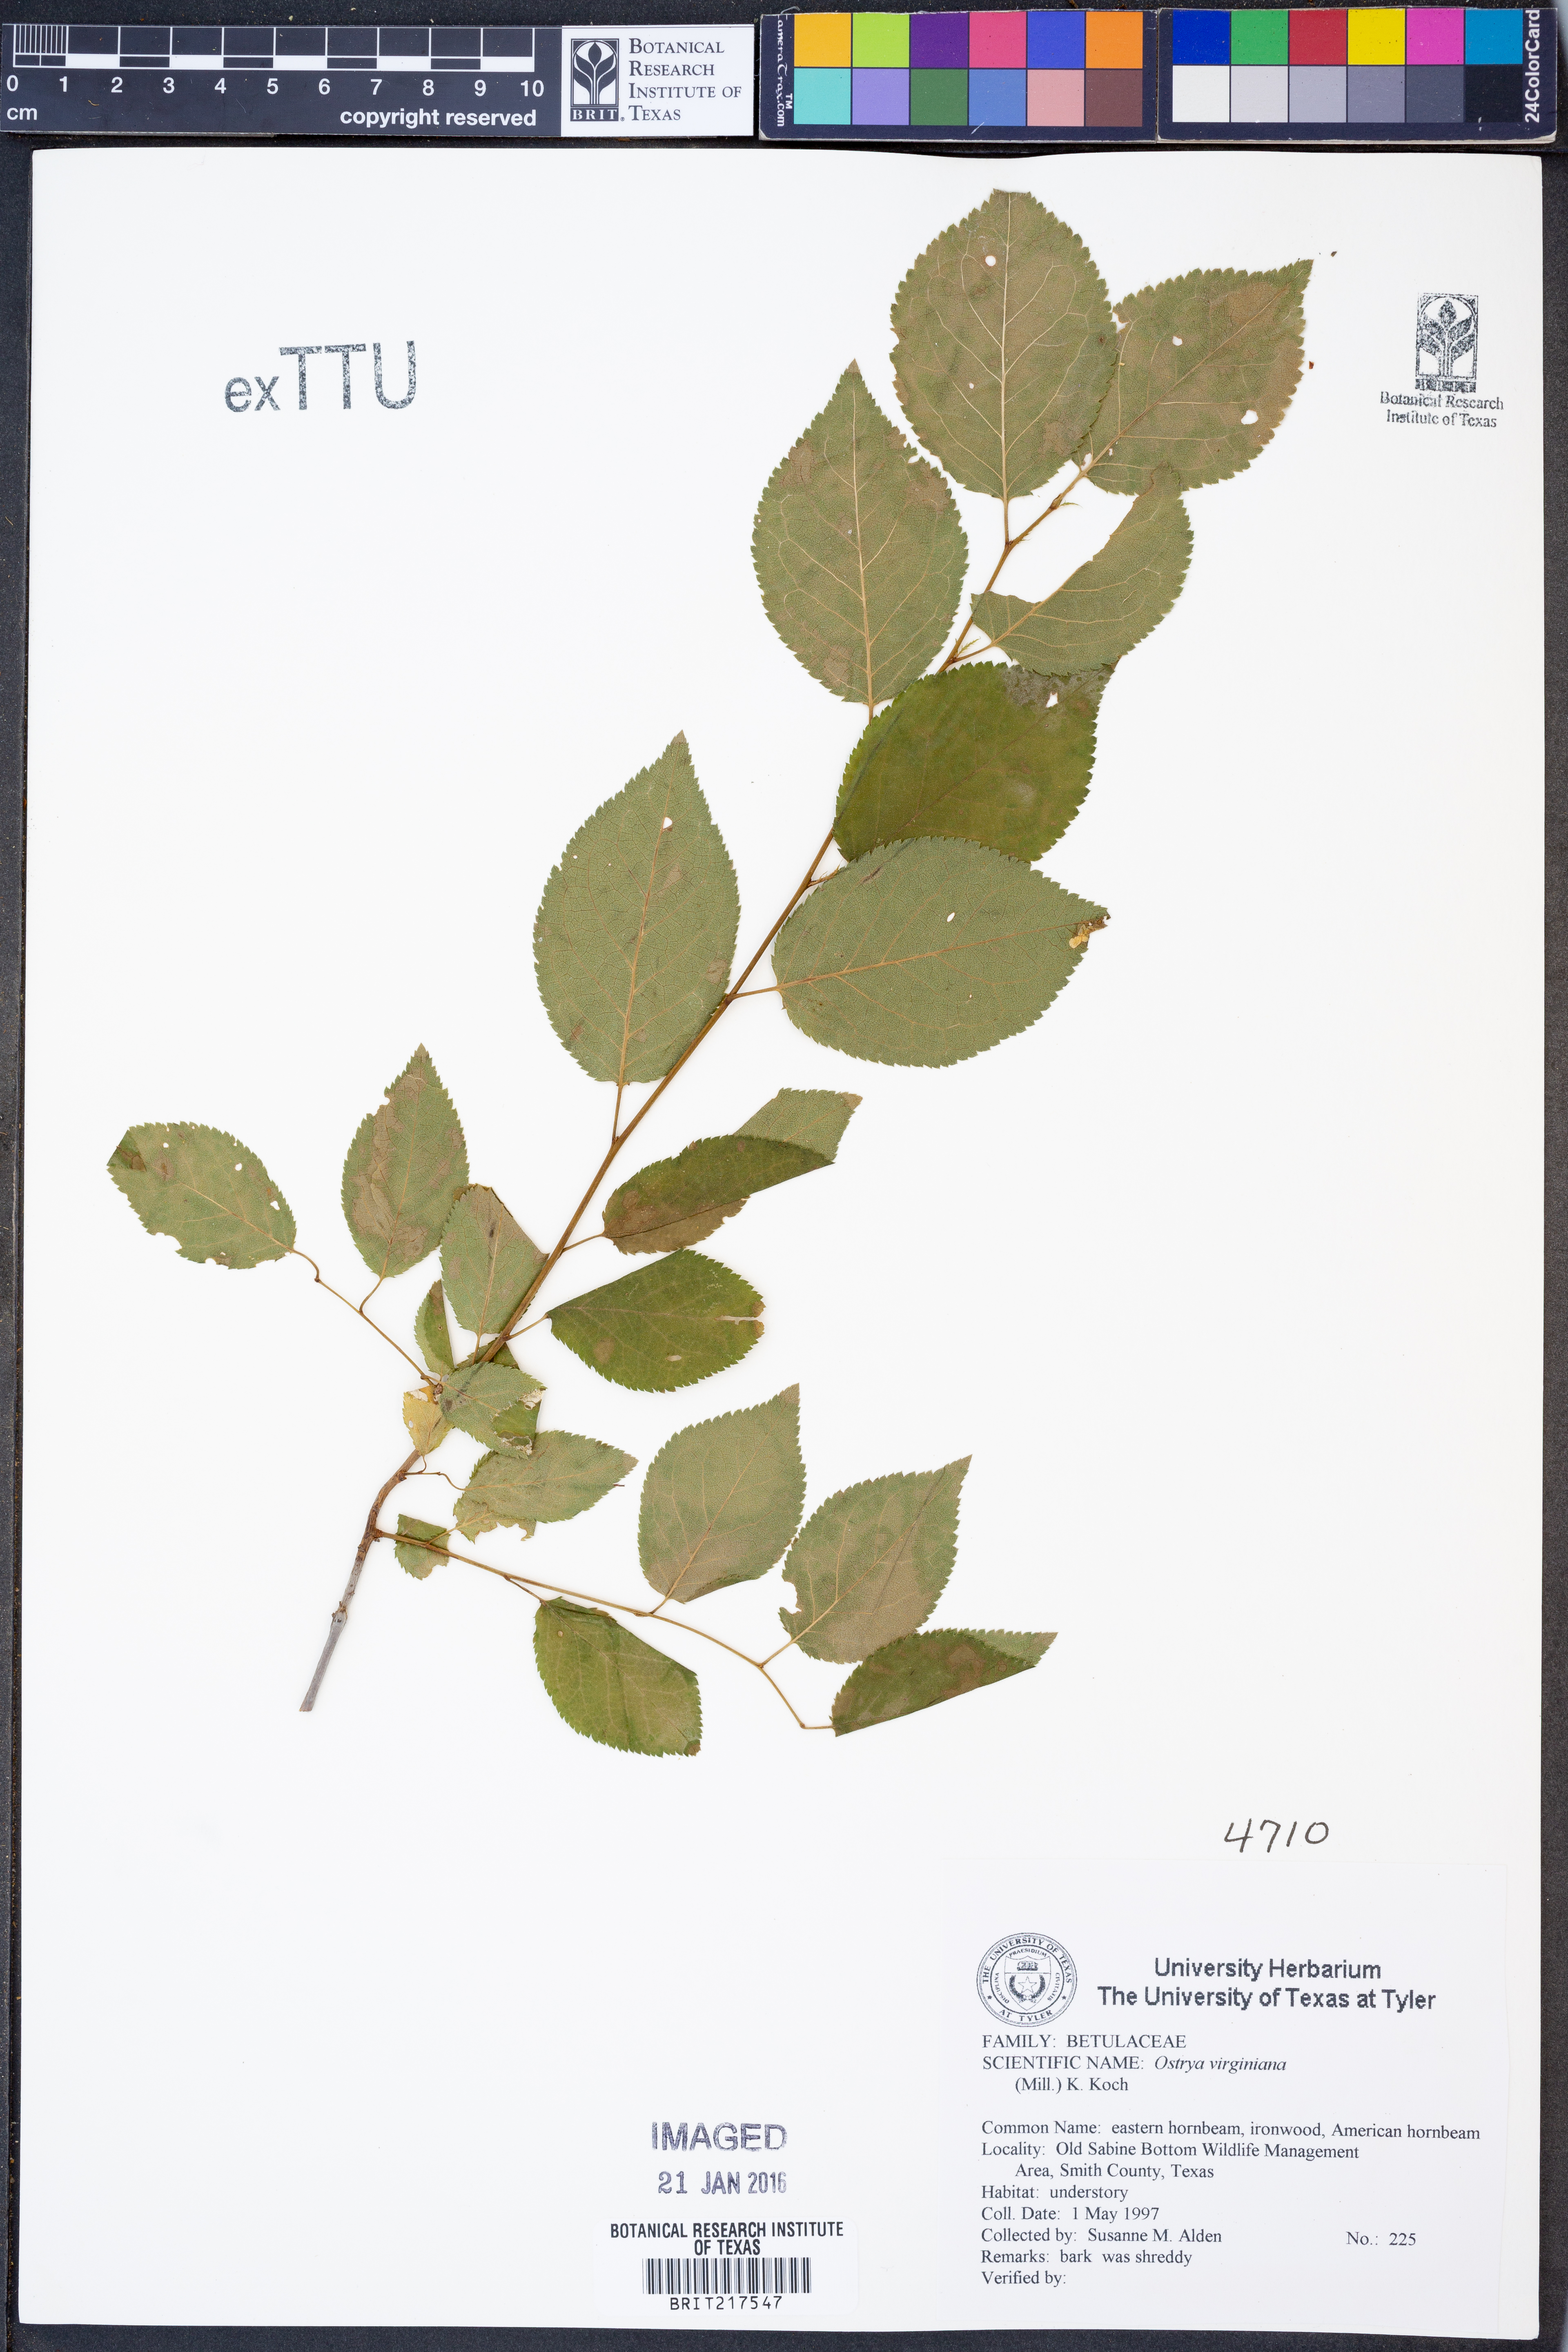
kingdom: Plantae
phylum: Tracheophyta
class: Magnoliopsida
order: Fagales
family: Betulaceae
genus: Ostrya
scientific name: Ostrya virginiana
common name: Ironwood
